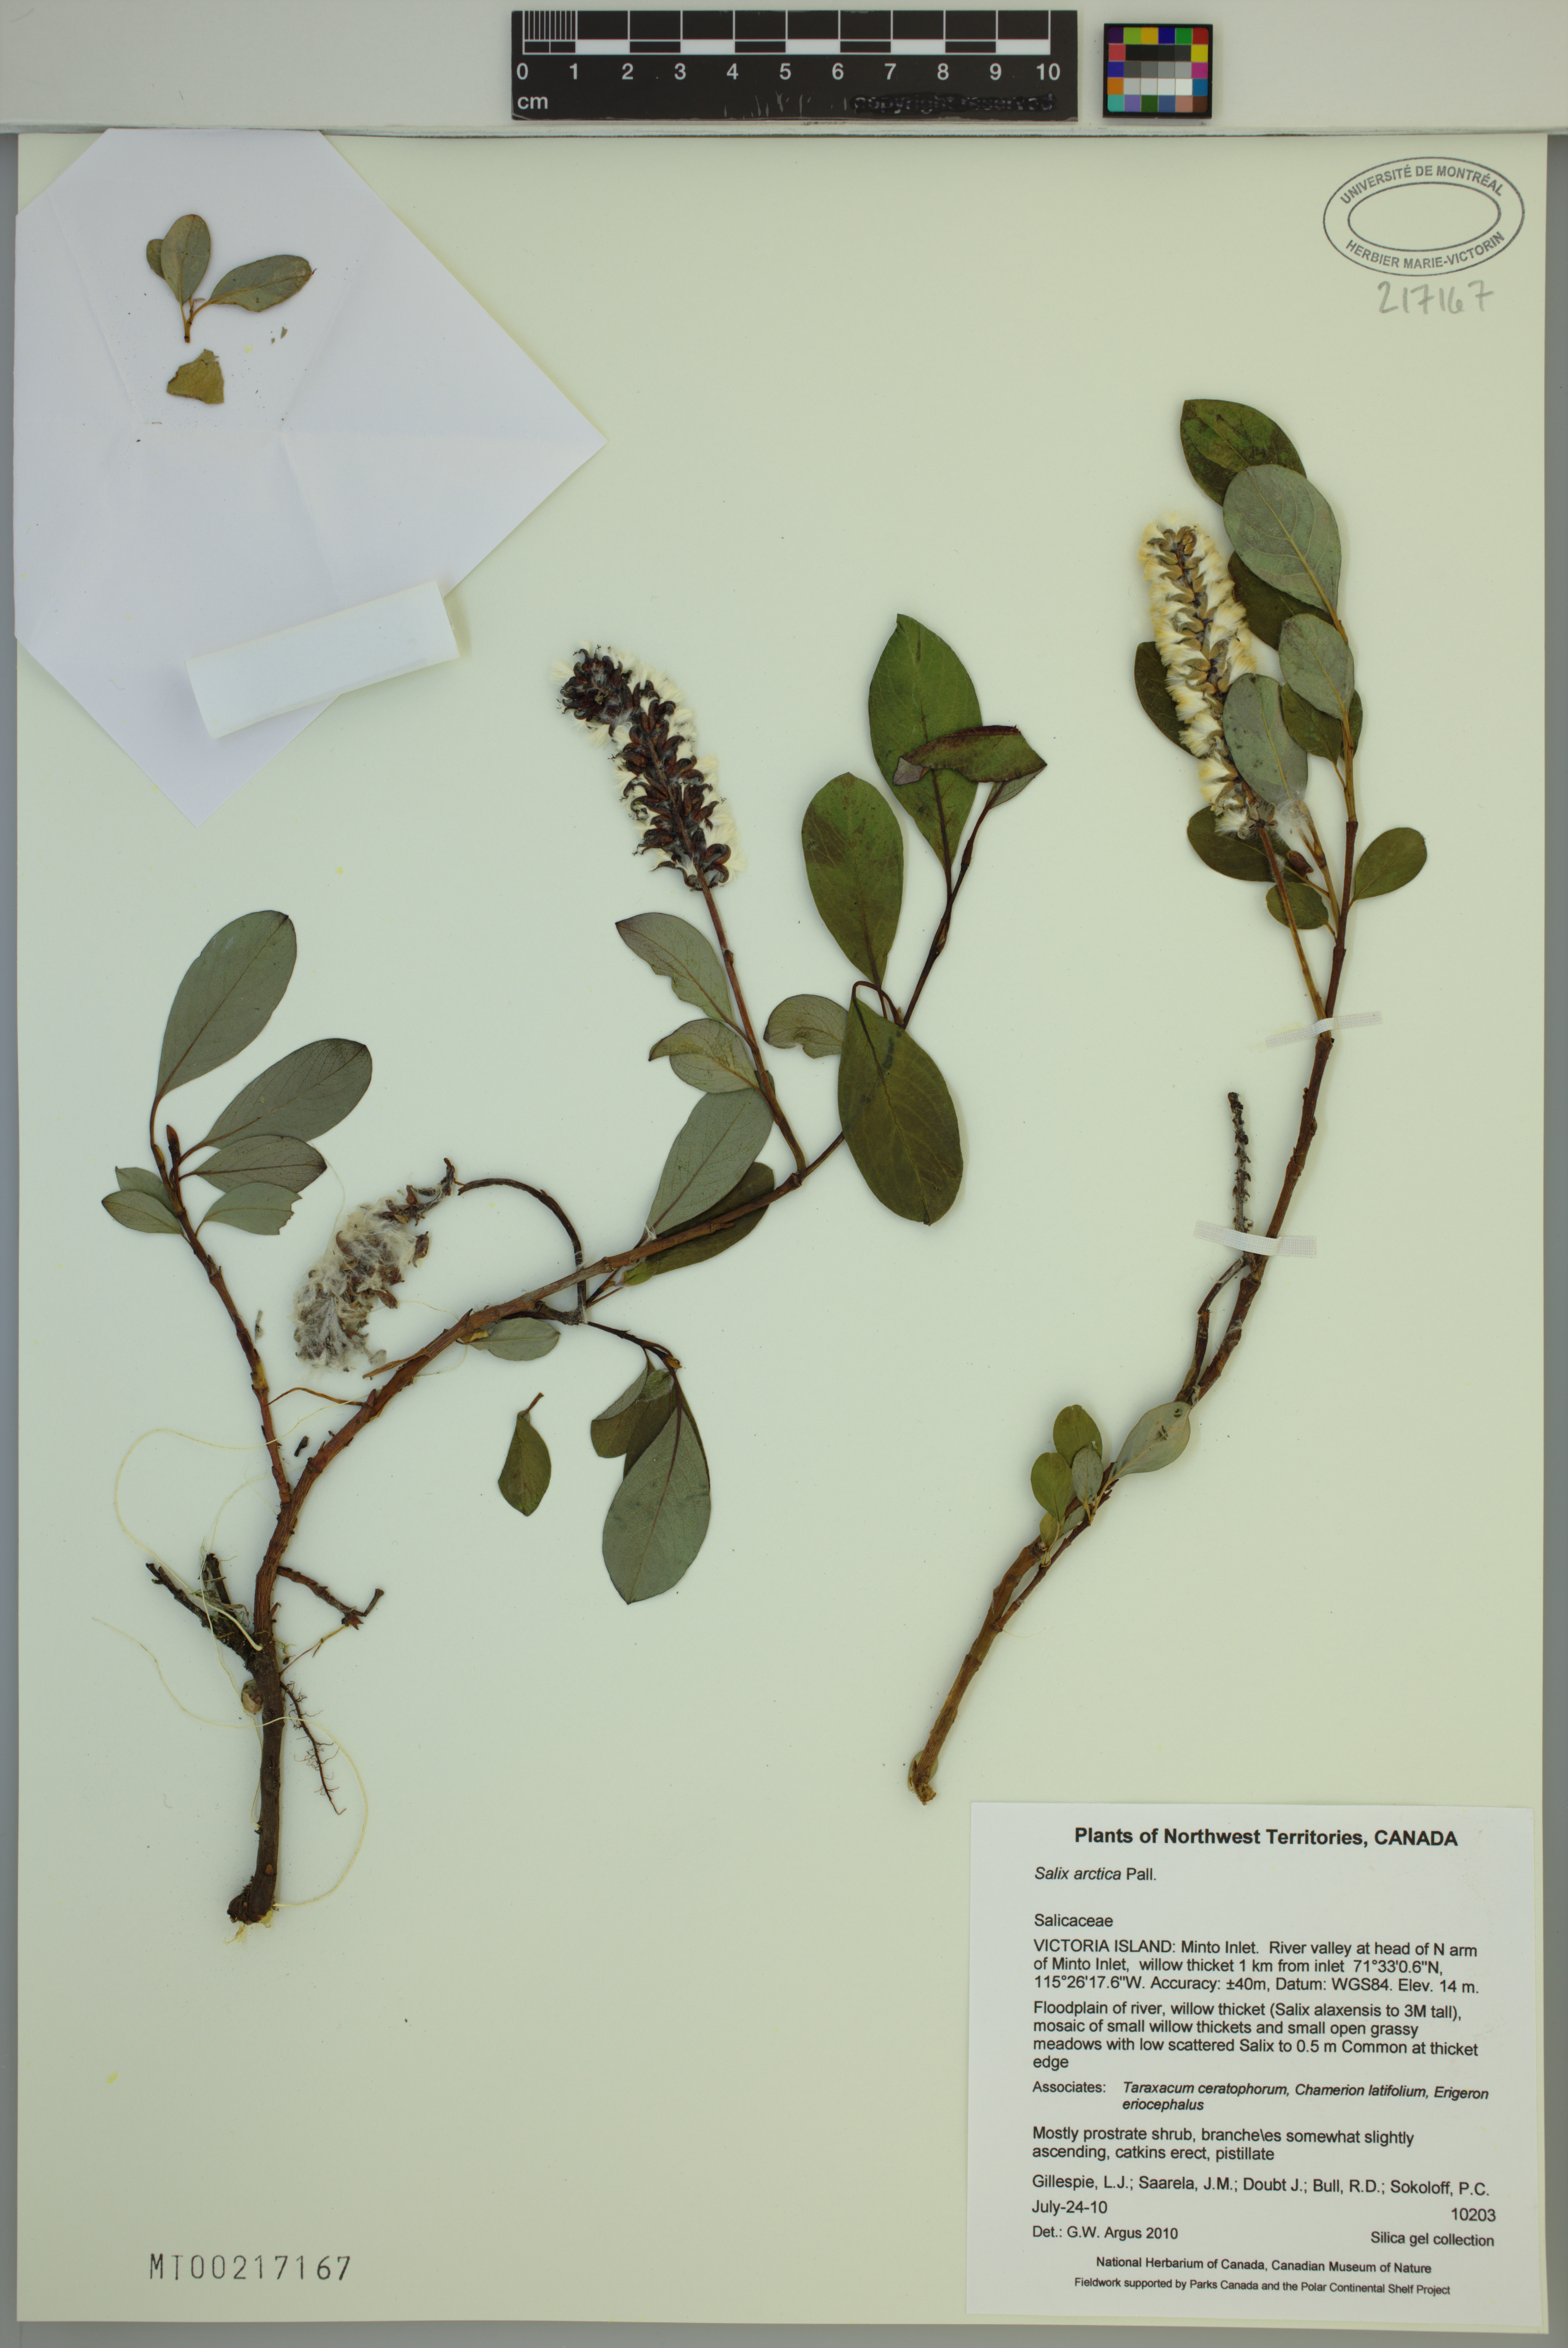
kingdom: Plantae
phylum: Tracheophyta
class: Magnoliopsida
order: Malpighiales
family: Salicaceae
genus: Salix
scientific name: Salix arctica
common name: Arctic willow
